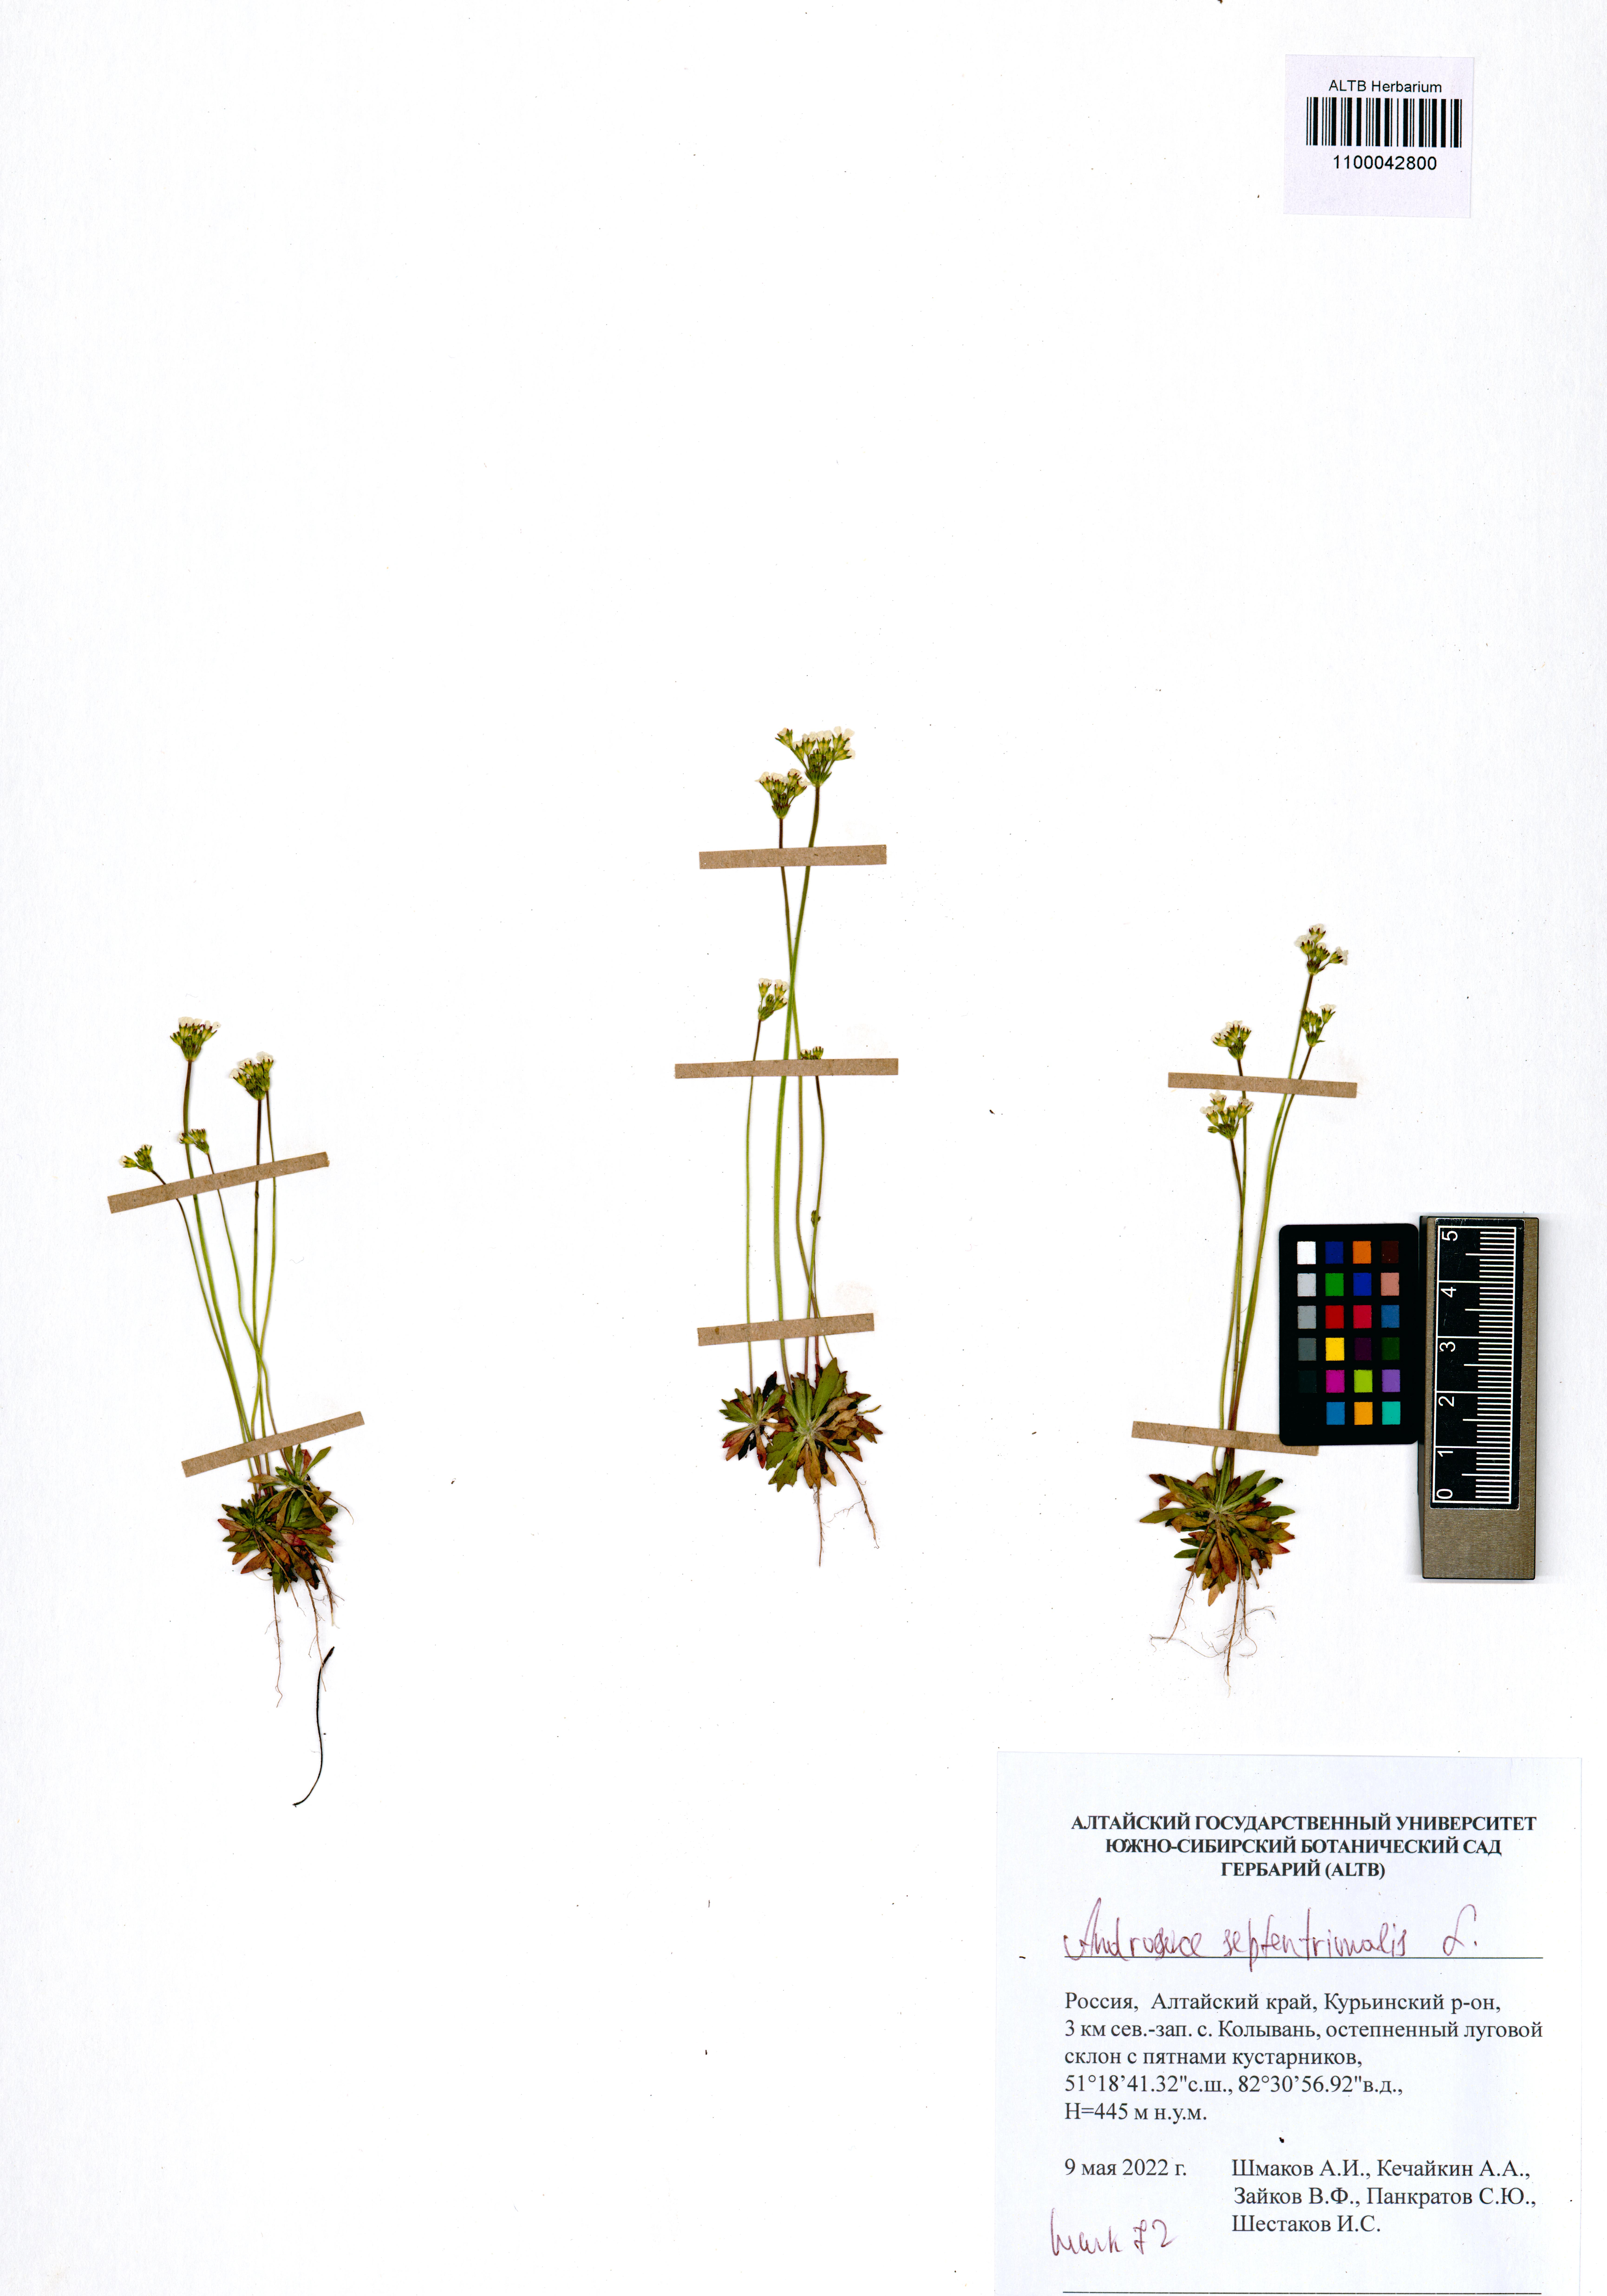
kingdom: Plantae
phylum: Tracheophyta
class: Magnoliopsida
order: Ericales
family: Primulaceae
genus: Androsace
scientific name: Androsace septentrionalis
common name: Hairy northern fairy-candelabra
